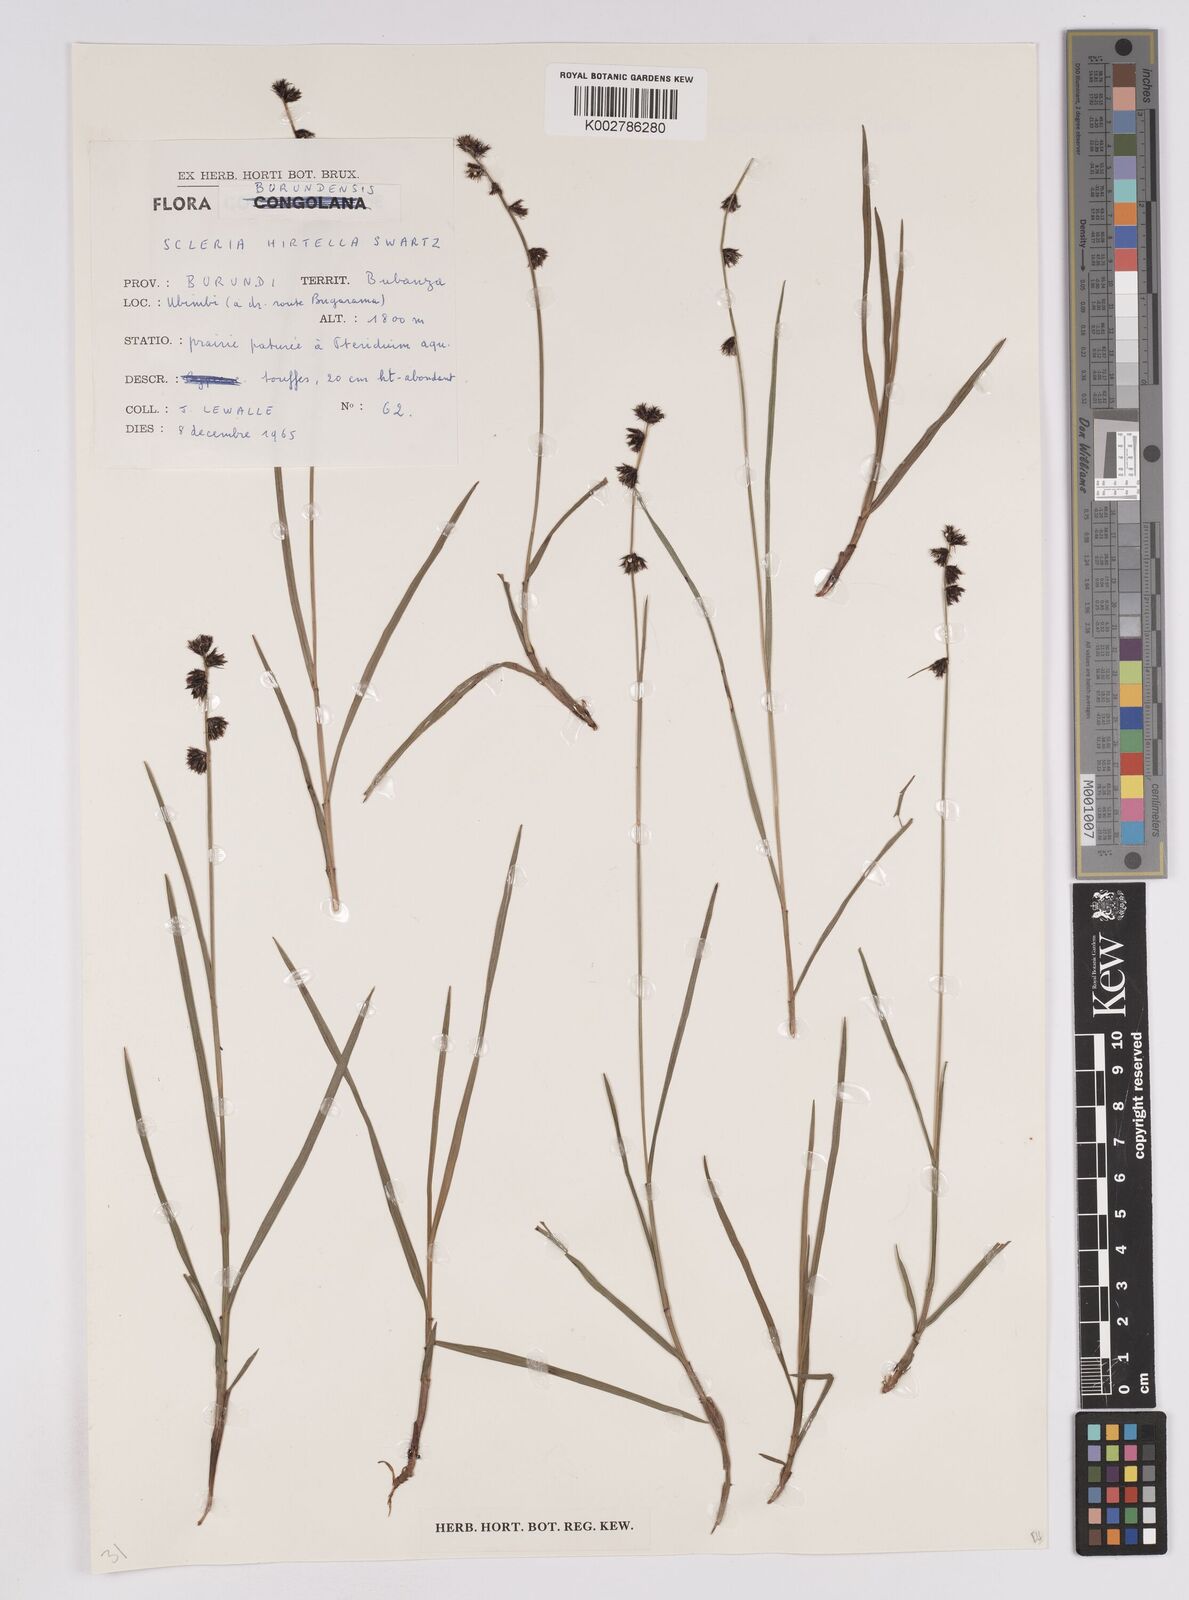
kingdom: Plantae
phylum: Tracheophyta
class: Liliopsida
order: Poales
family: Cyperaceae
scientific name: Cyperaceae
